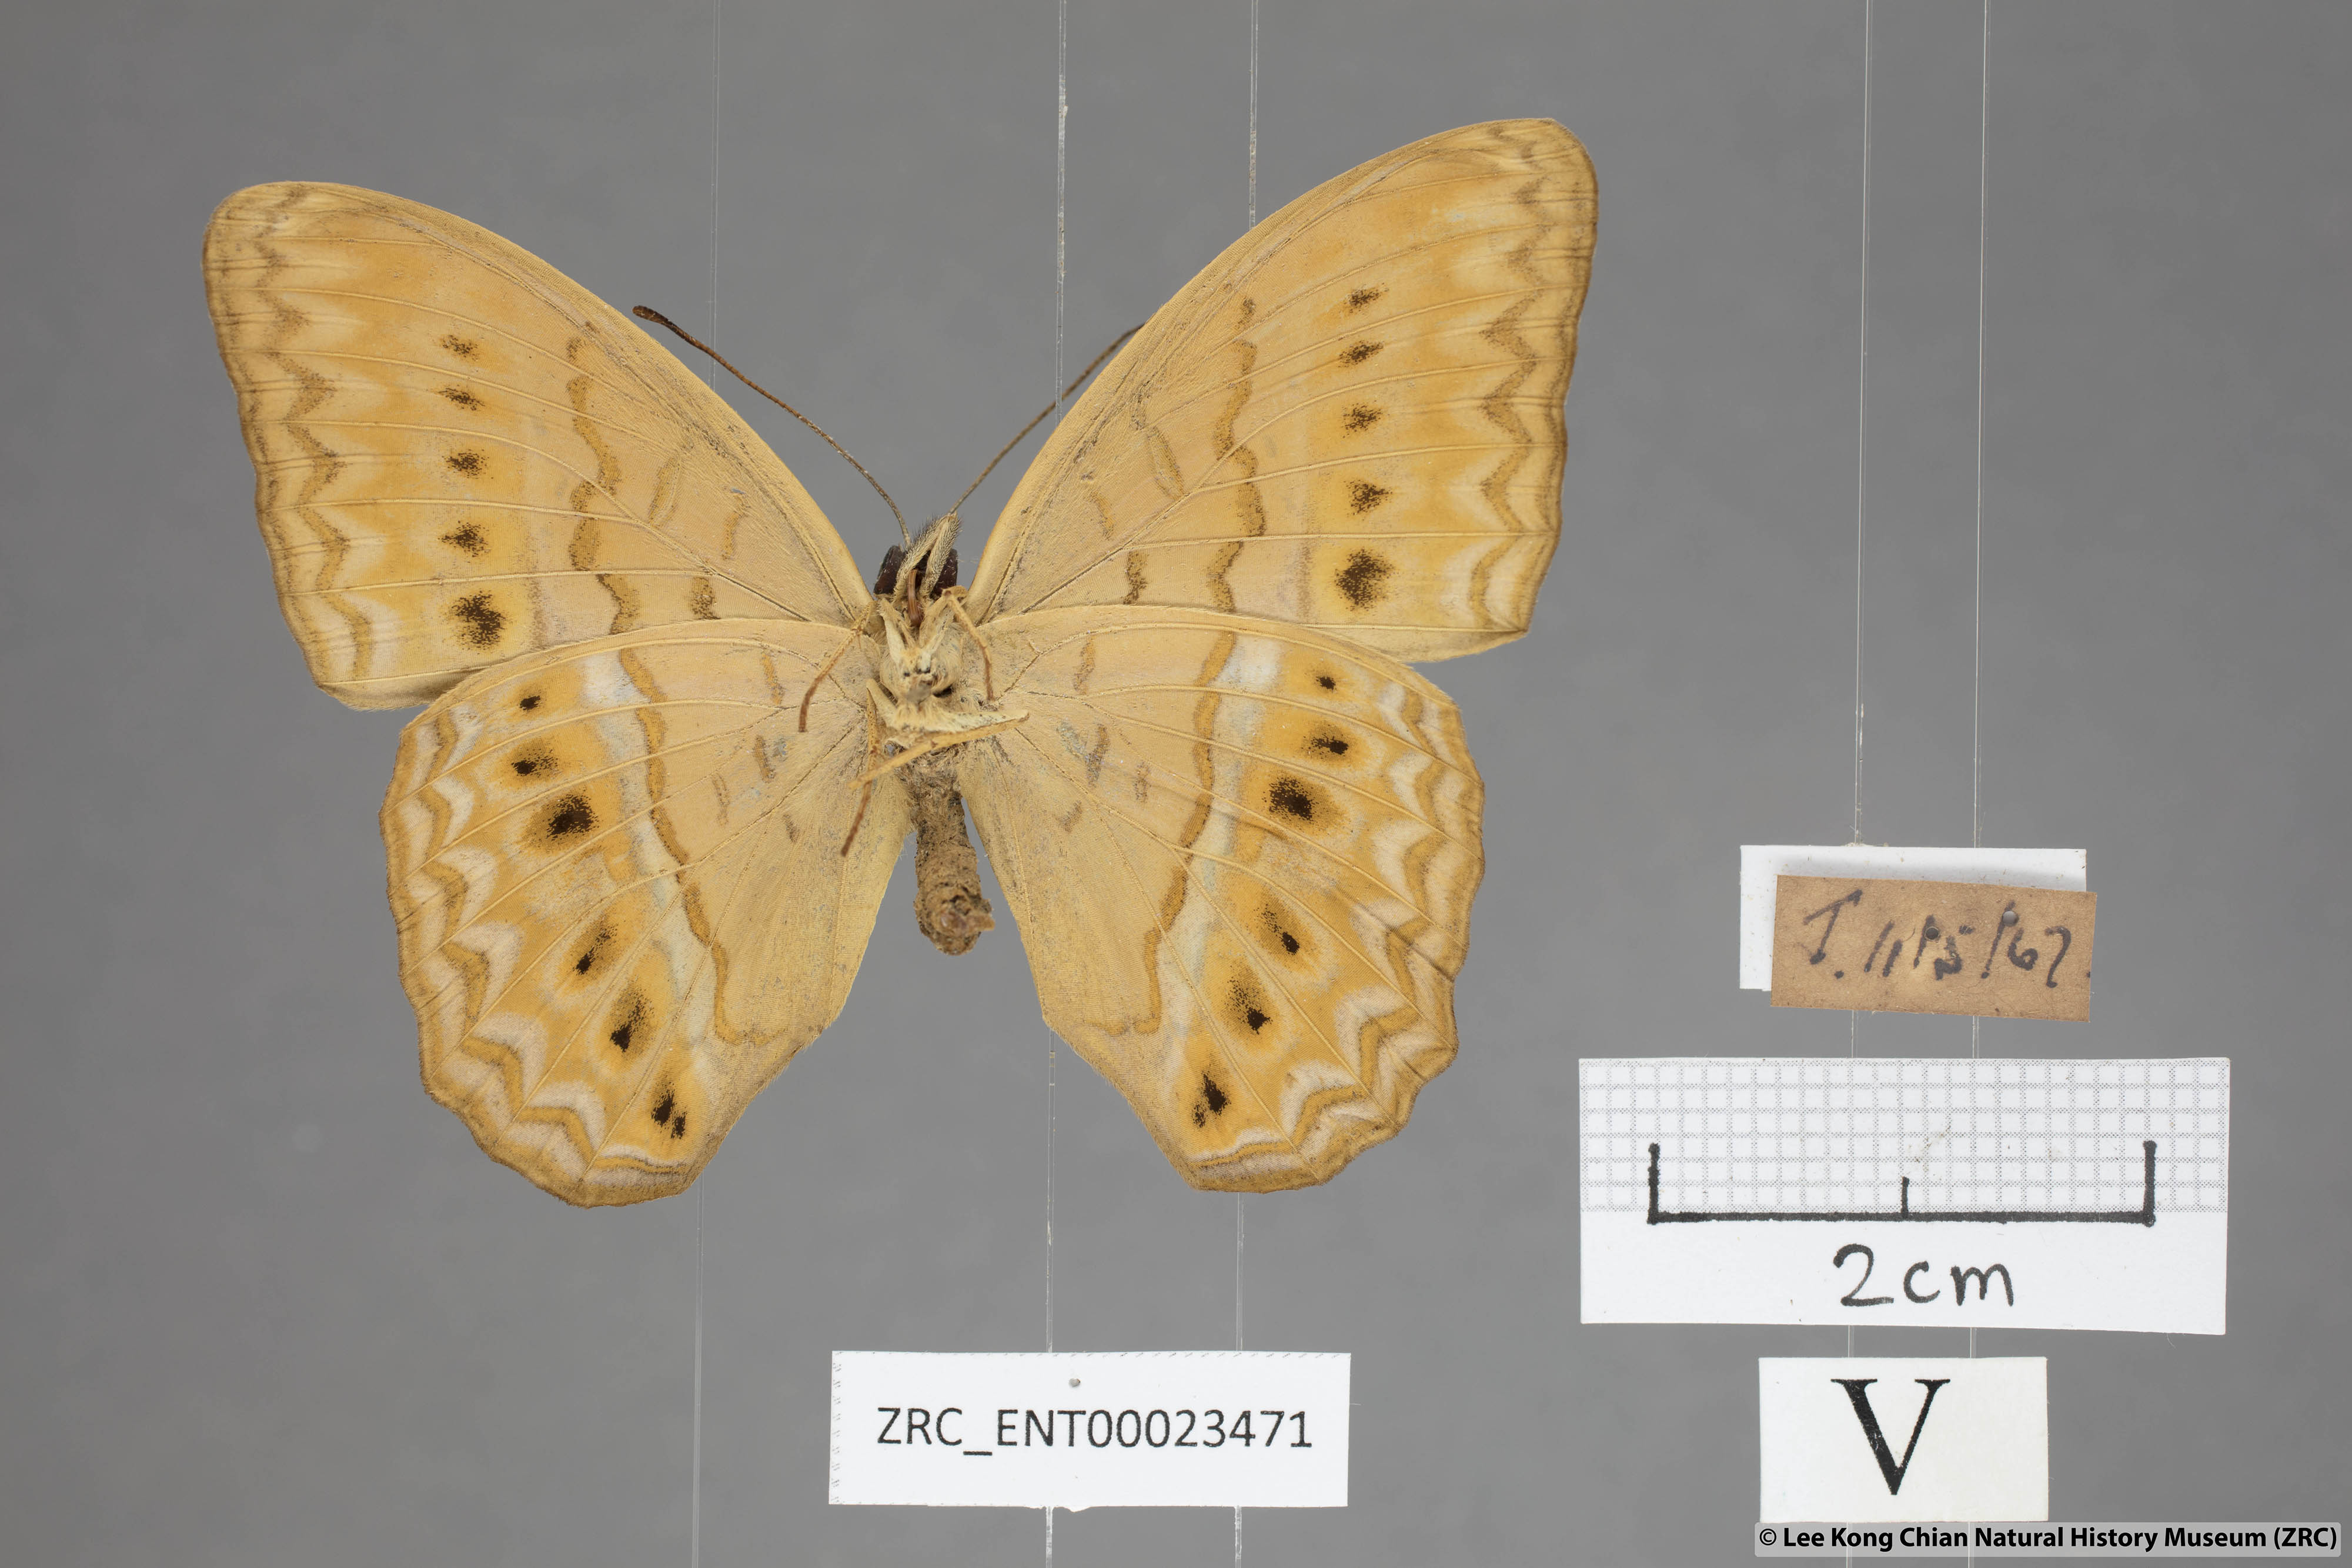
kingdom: Animalia
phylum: Arthropoda
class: Insecta
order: Lepidoptera
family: Nymphalidae
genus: Cirrochroa
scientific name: Cirrochroa tyche
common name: Common yeoman
